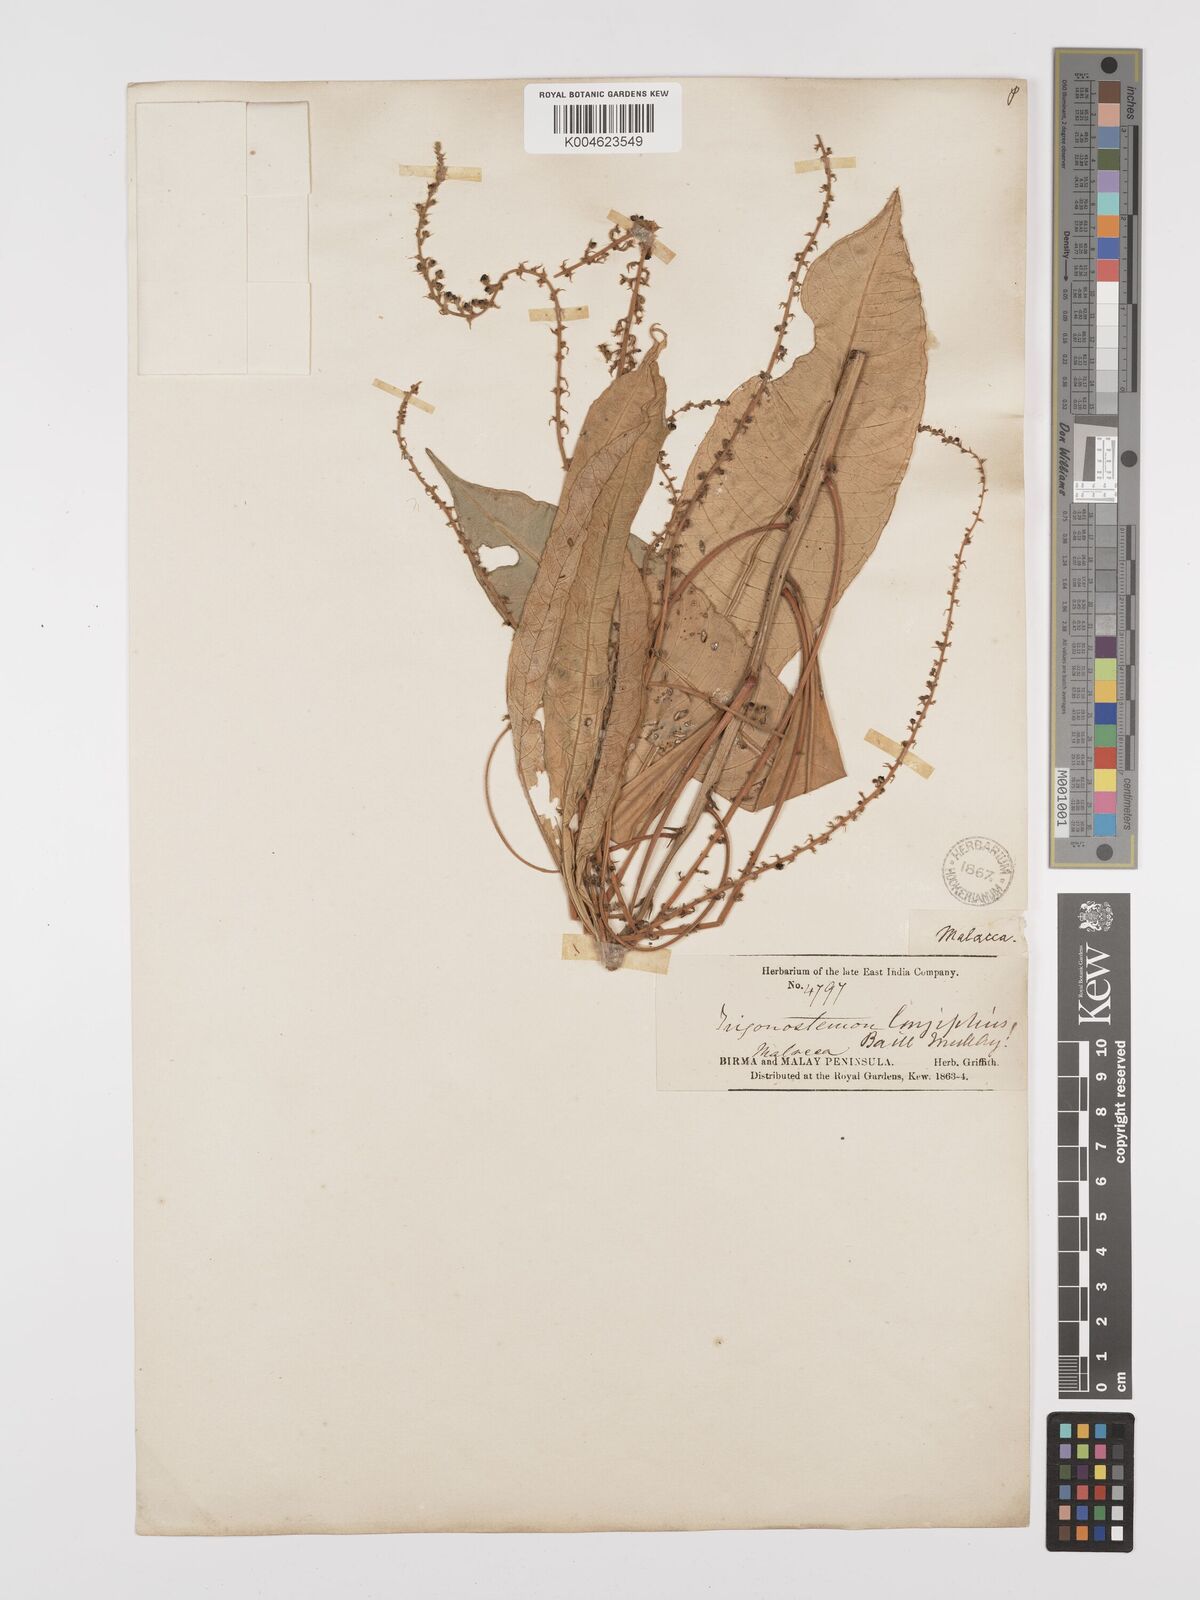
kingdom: Plantae
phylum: Tracheophyta
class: Magnoliopsida
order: Malpighiales
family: Euphorbiaceae
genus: Trigonostemon
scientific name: Trigonostemon longifolius
